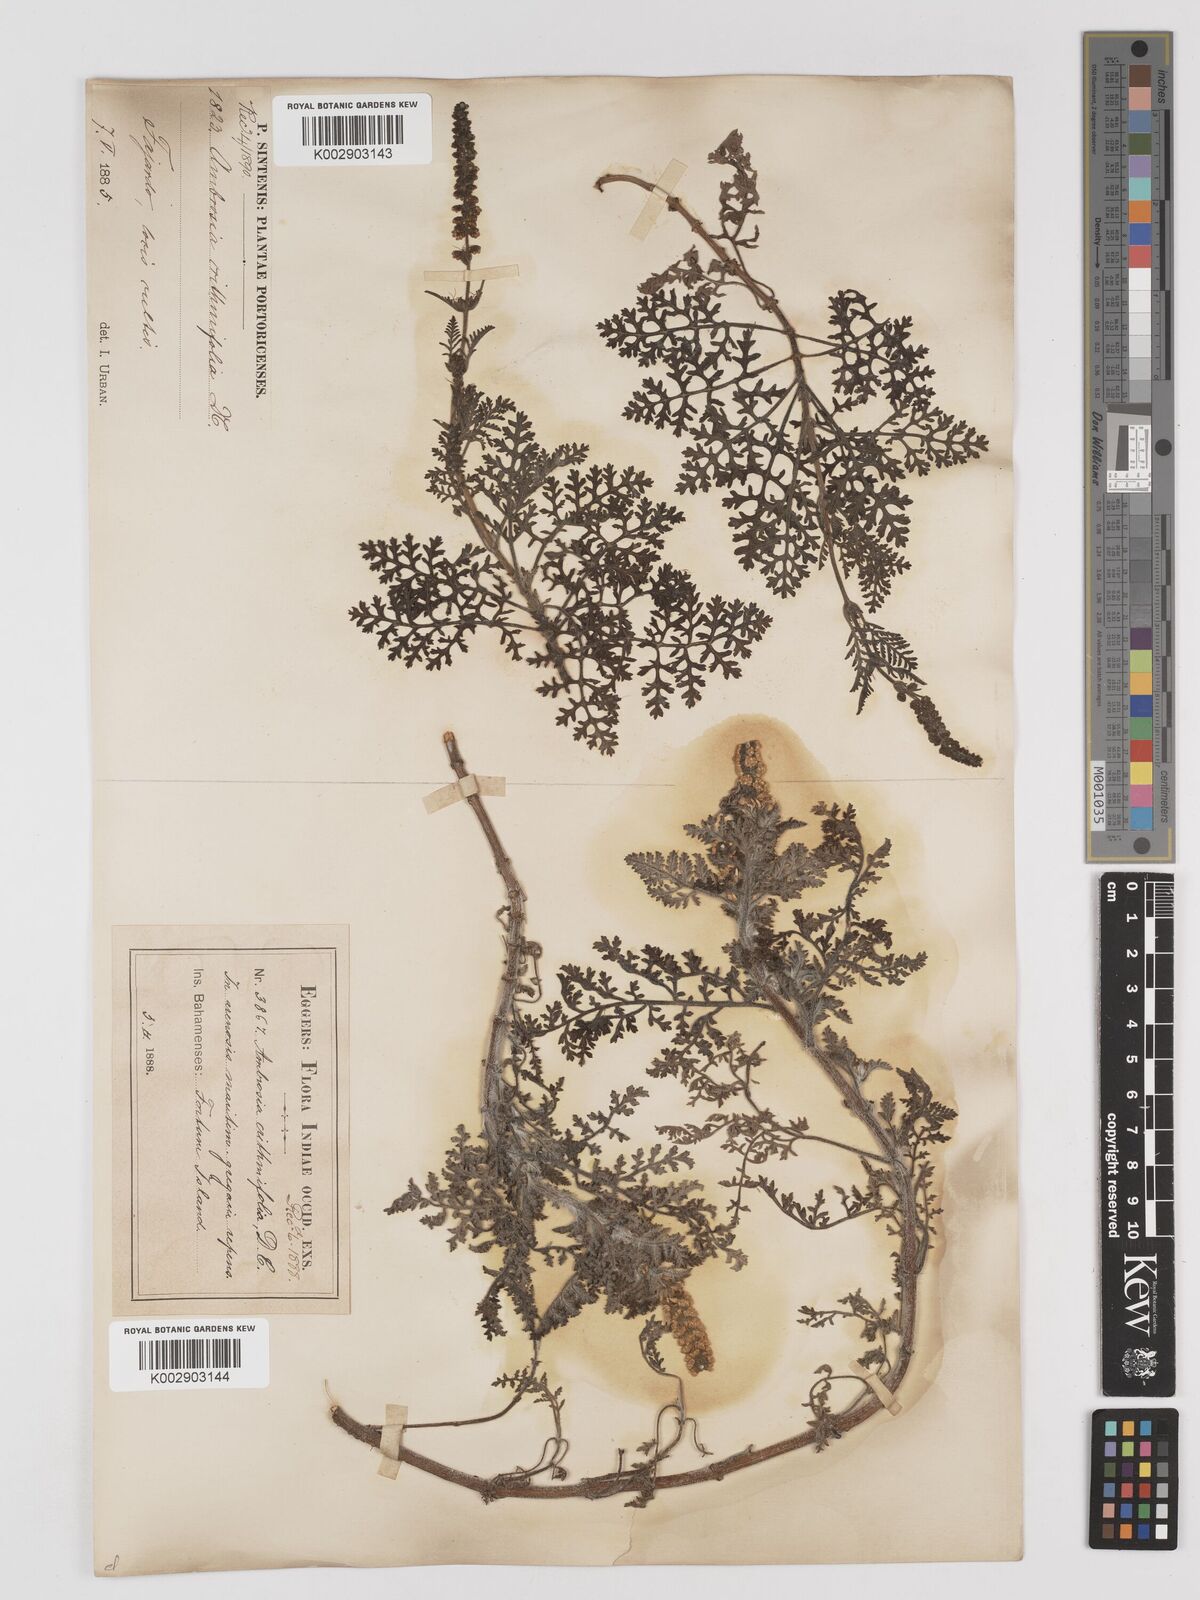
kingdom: Plantae
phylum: Tracheophyta
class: Magnoliopsida
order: Asterales
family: Asteraceae
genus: Ambrosia
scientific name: Ambrosia hispida
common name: Coastal ragweed
